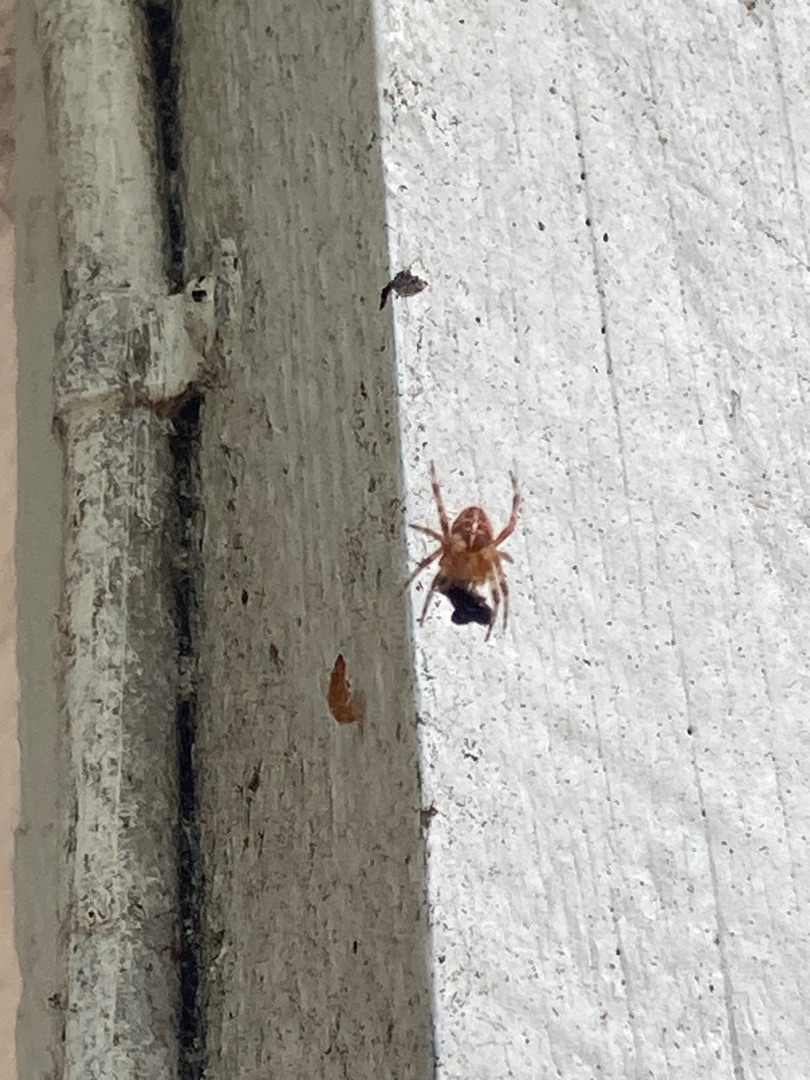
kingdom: Animalia
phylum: Arthropoda
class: Arachnida
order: Araneae
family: Araneidae
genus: Araneus
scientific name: Araneus diadematus
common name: Korsedderkop
